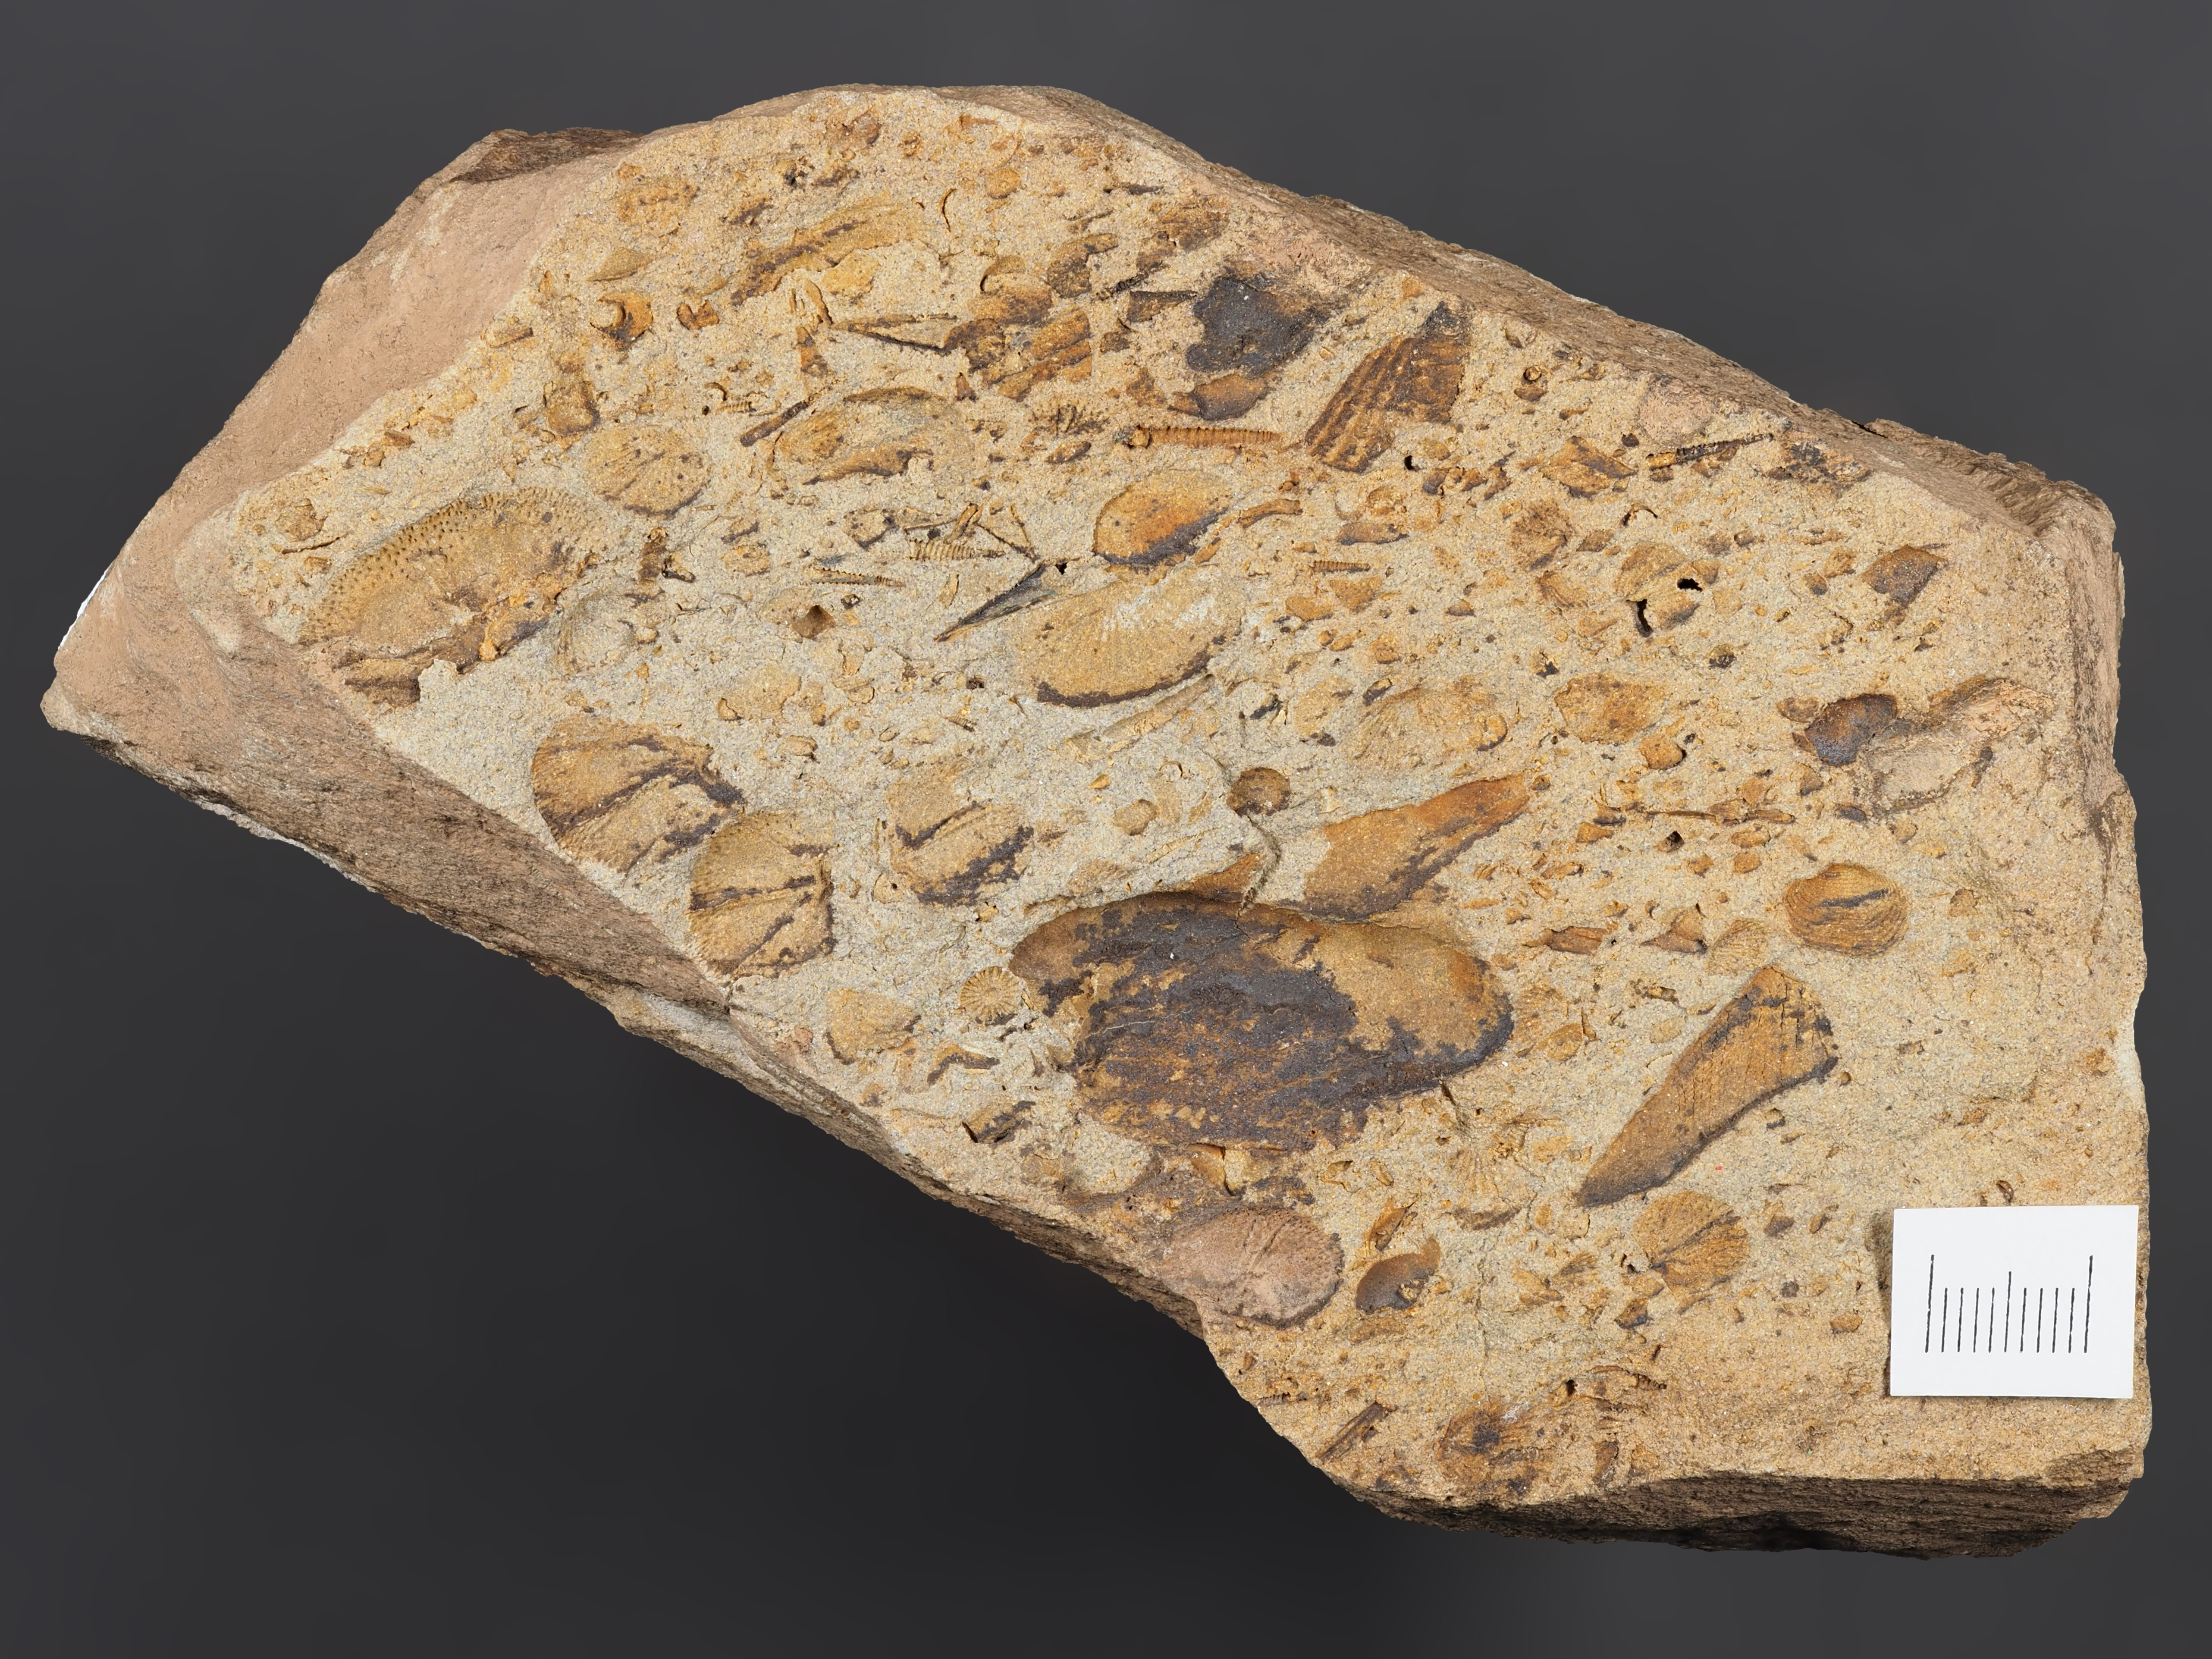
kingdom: Animalia
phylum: Mollusca
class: Bivalvia
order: Nuculanida
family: Malletiidae
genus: Palaeoneilo
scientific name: Palaeoneilo
